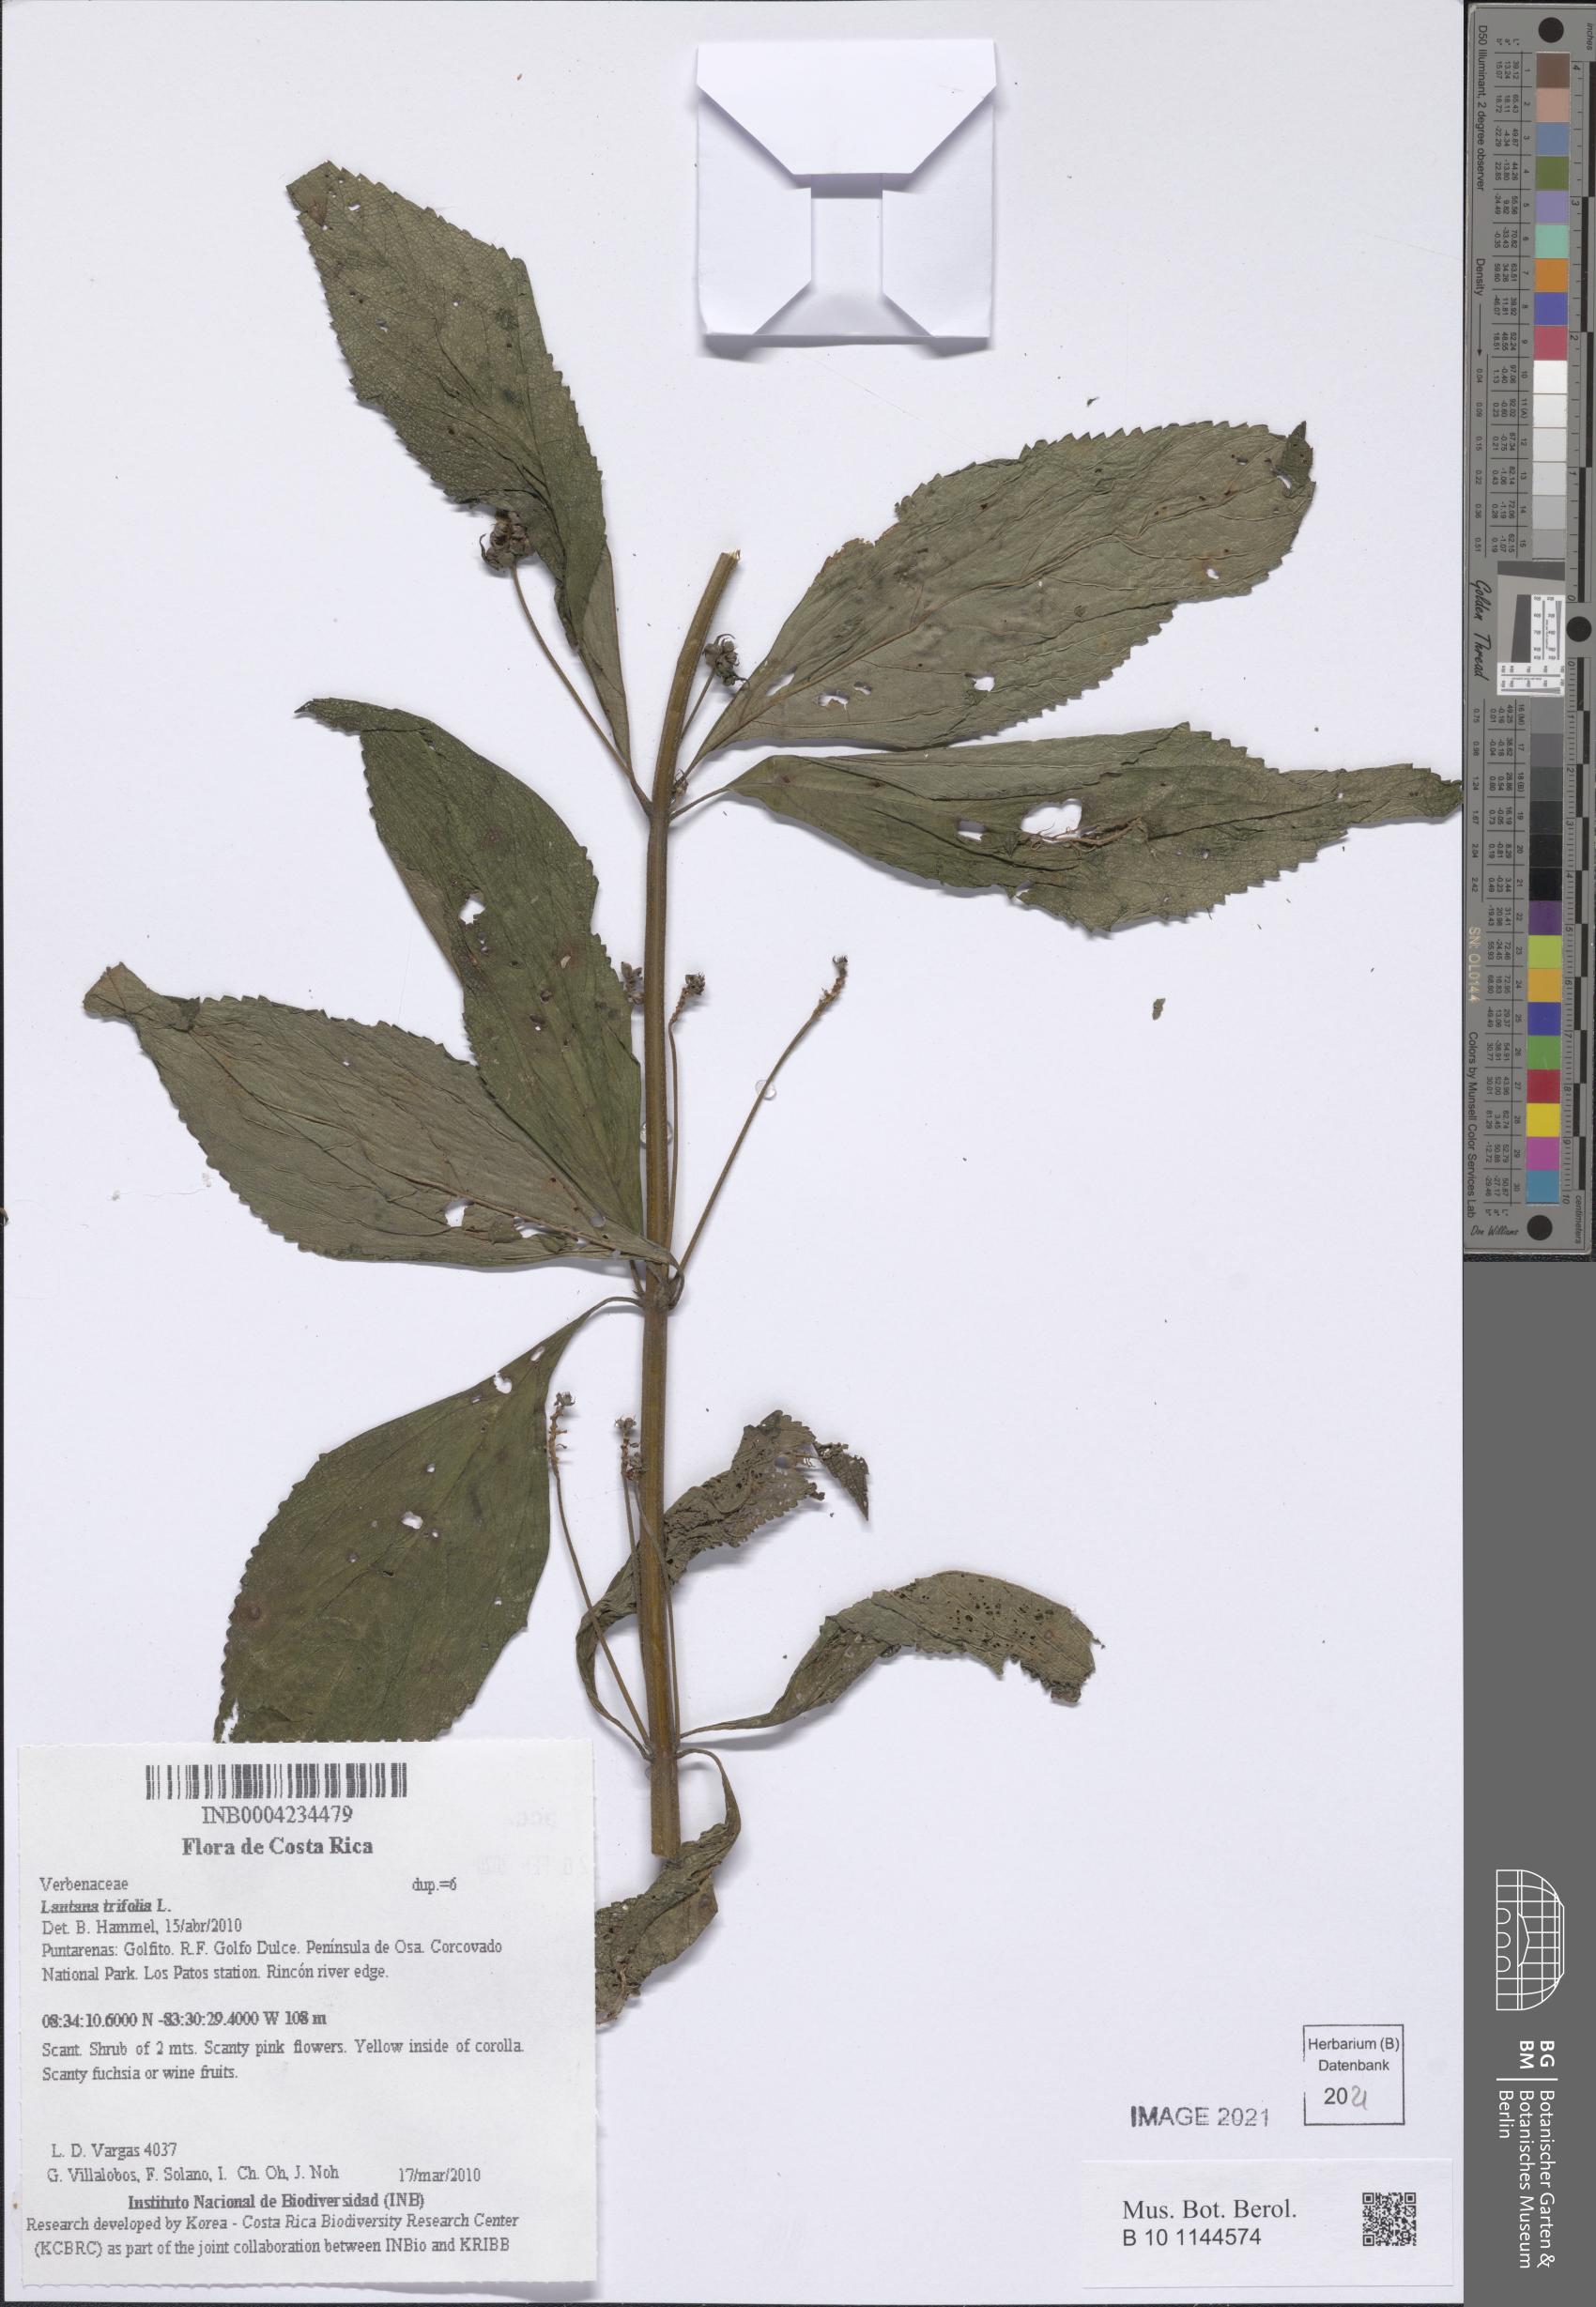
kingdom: Plantae
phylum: Tracheophyta
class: Magnoliopsida
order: Lamiales
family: Verbenaceae
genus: Lantana
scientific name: Lantana trifolia
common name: Sweet-sage
